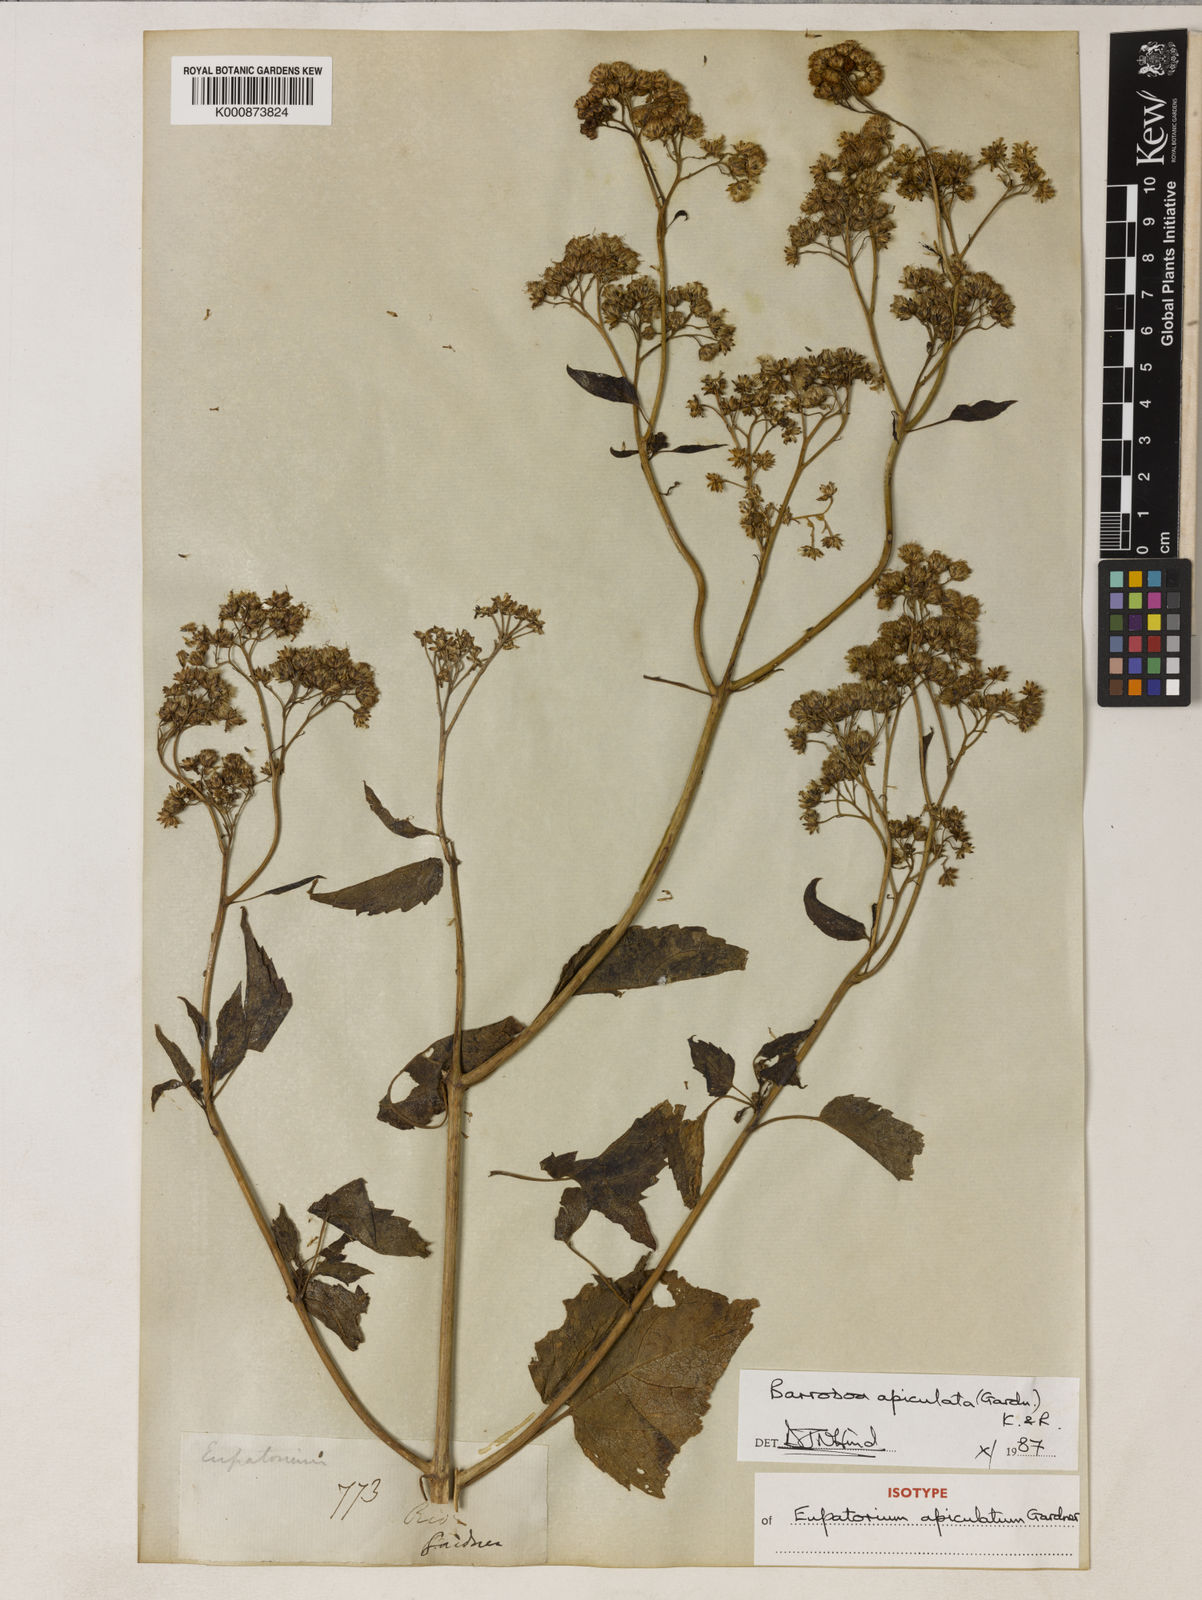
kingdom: Plantae
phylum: Tracheophyta
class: Magnoliopsida
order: Asterales
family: Asteraceae
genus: Barrosoa
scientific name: Barrosoa apiculata
